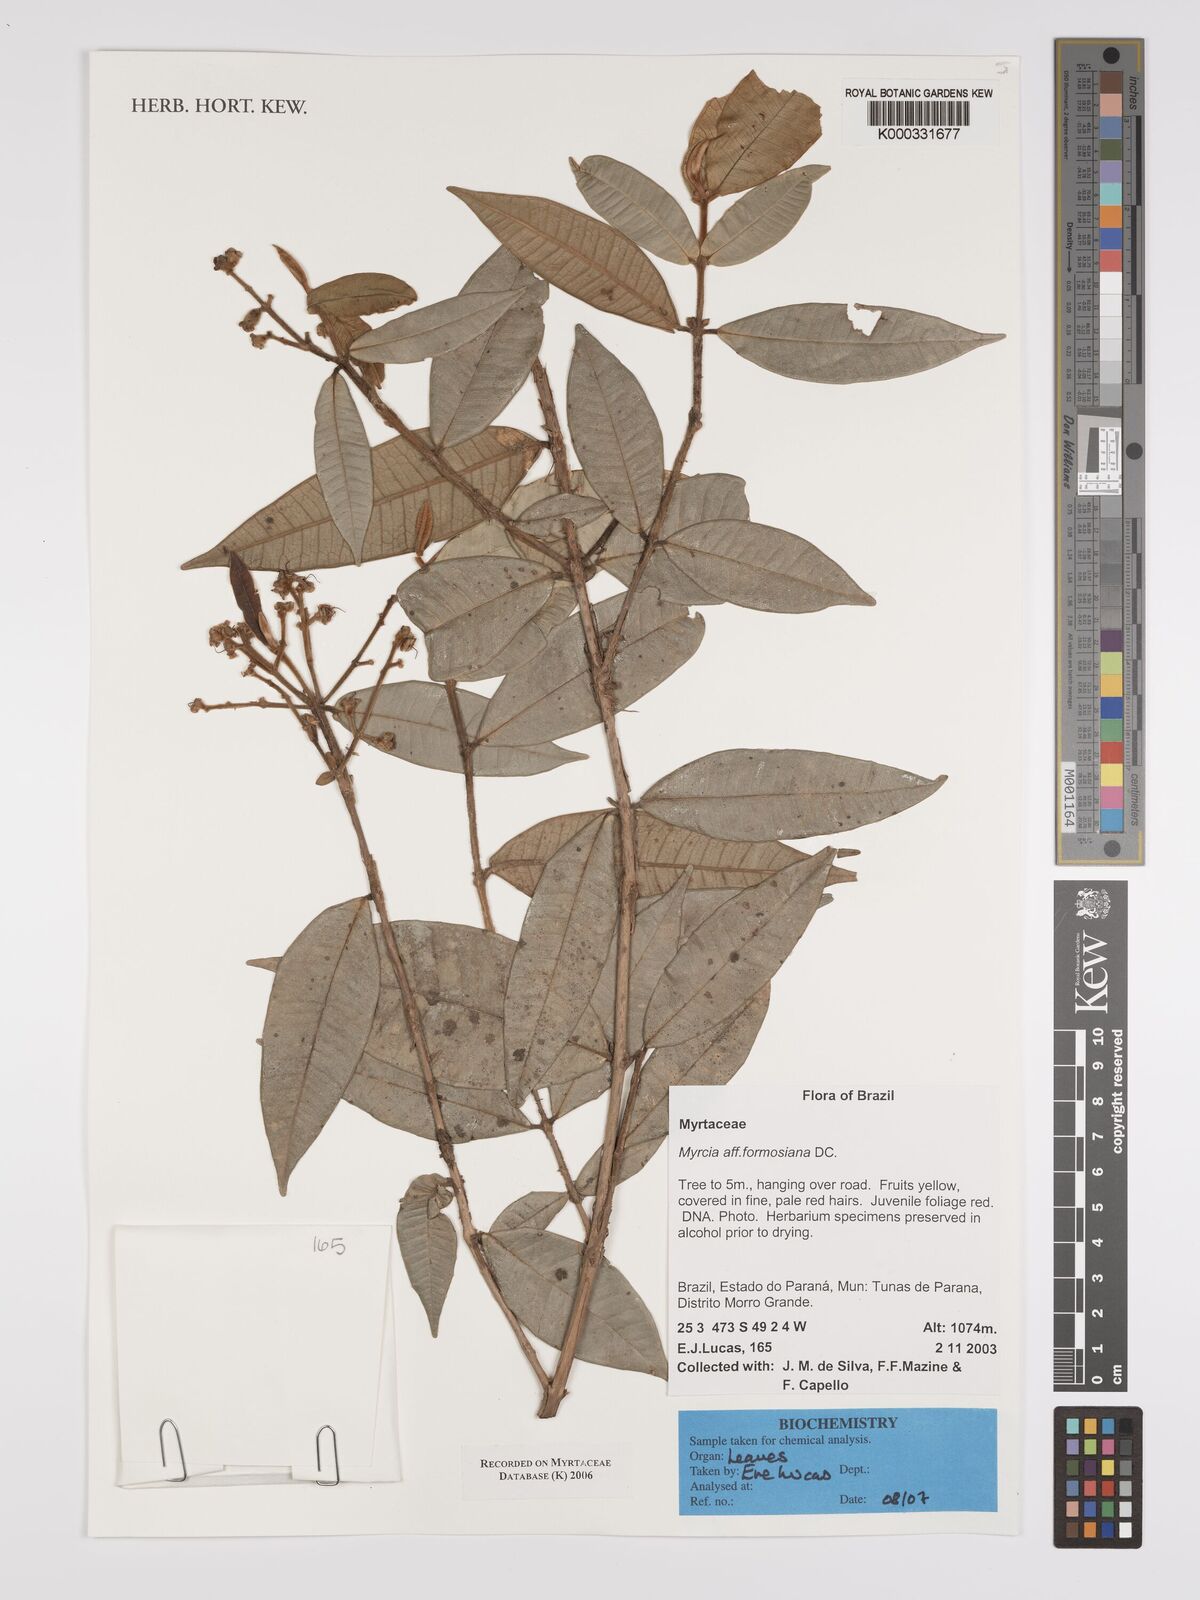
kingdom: Plantae
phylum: Tracheophyta
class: Magnoliopsida
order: Myrtales
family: Myrtaceae
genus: Myrcia
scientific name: Myrcia splendens
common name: Surinam cherry
